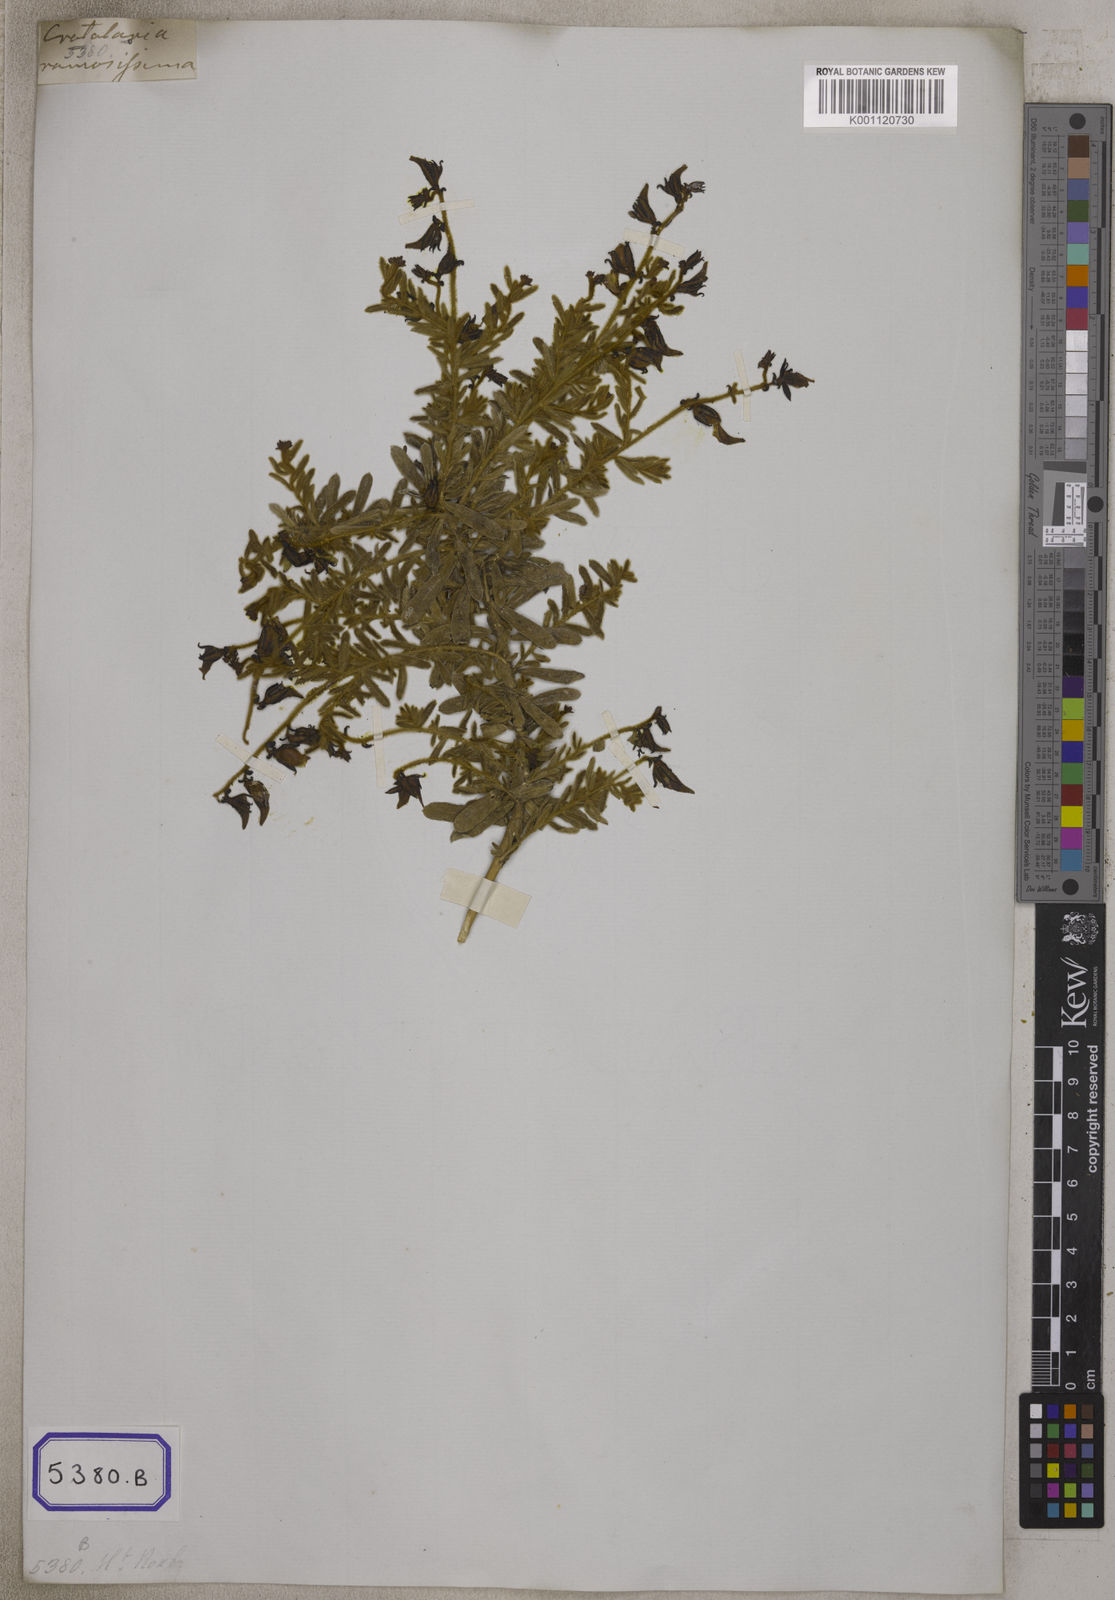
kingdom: Plantae
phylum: Tracheophyta
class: Magnoliopsida
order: Fabales
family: Fabaceae
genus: Crotalaria
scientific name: Crotalaria ramosissima
